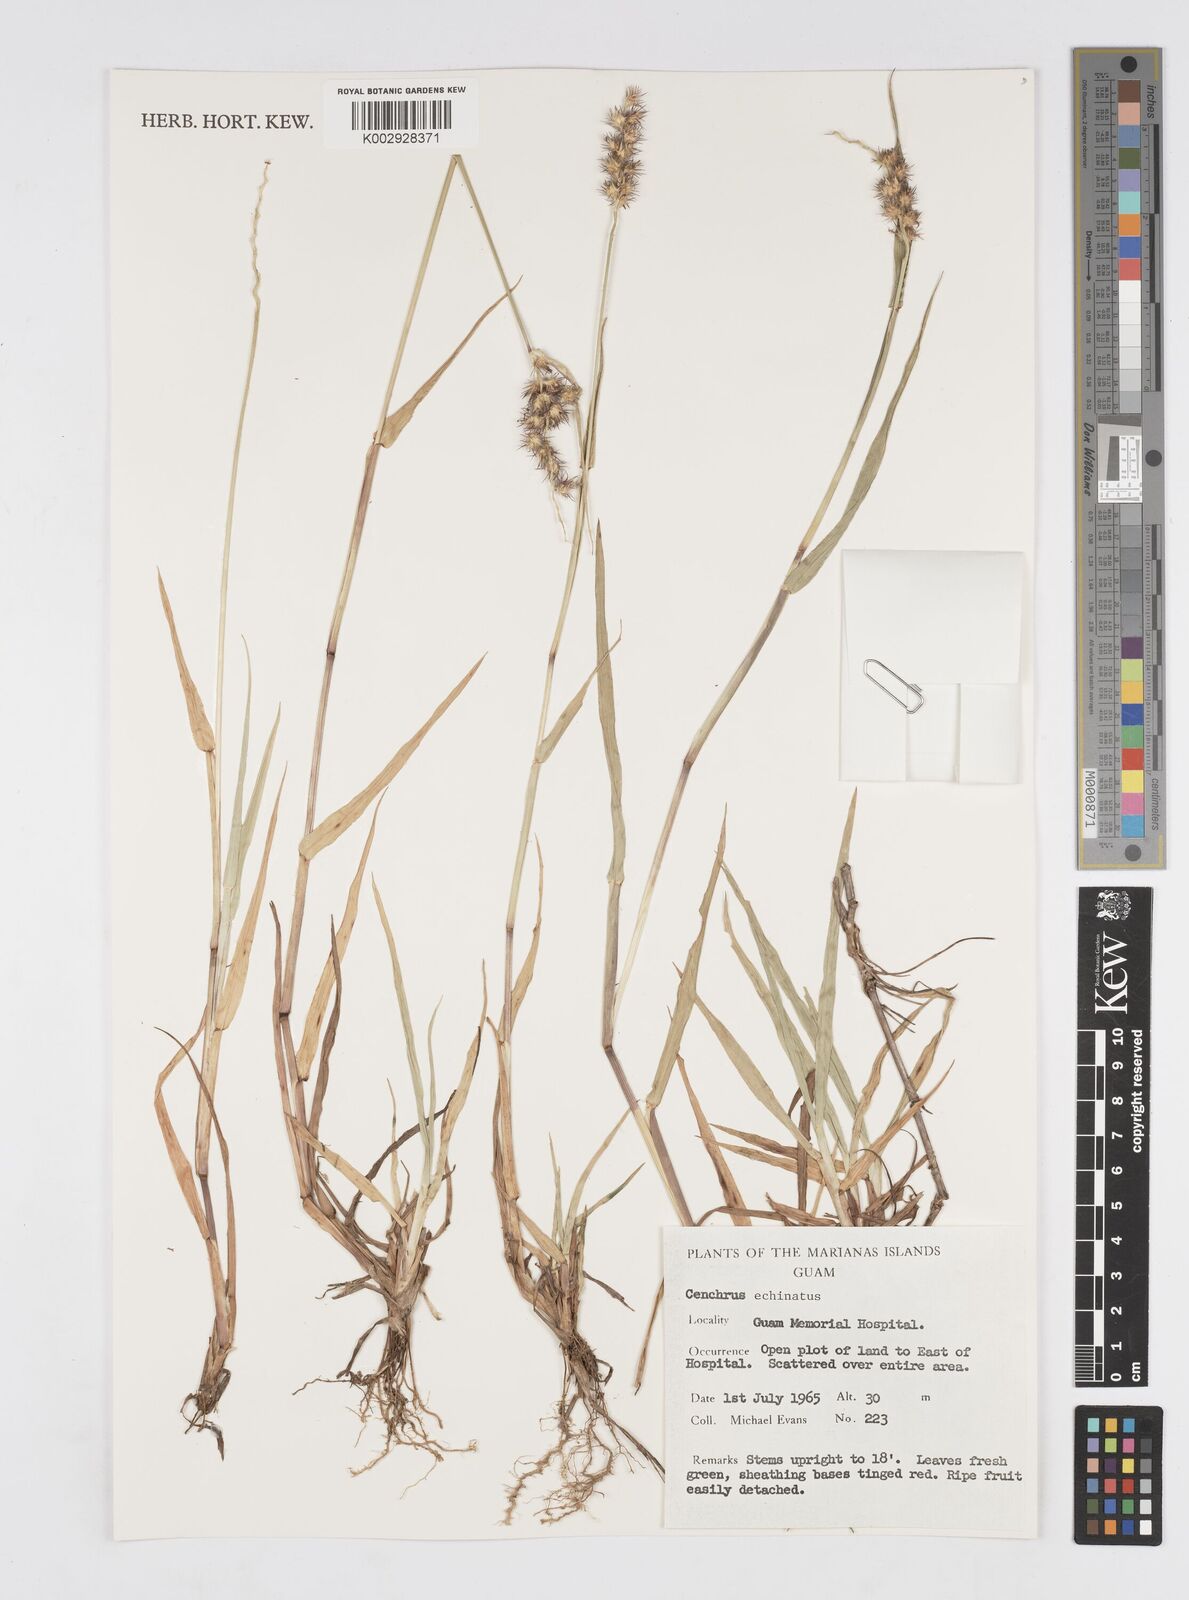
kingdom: Plantae
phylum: Tracheophyta
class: Liliopsida
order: Poales
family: Poaceae
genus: Cenchrus
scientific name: Cenchrus echinatus
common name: Southern sandbur
